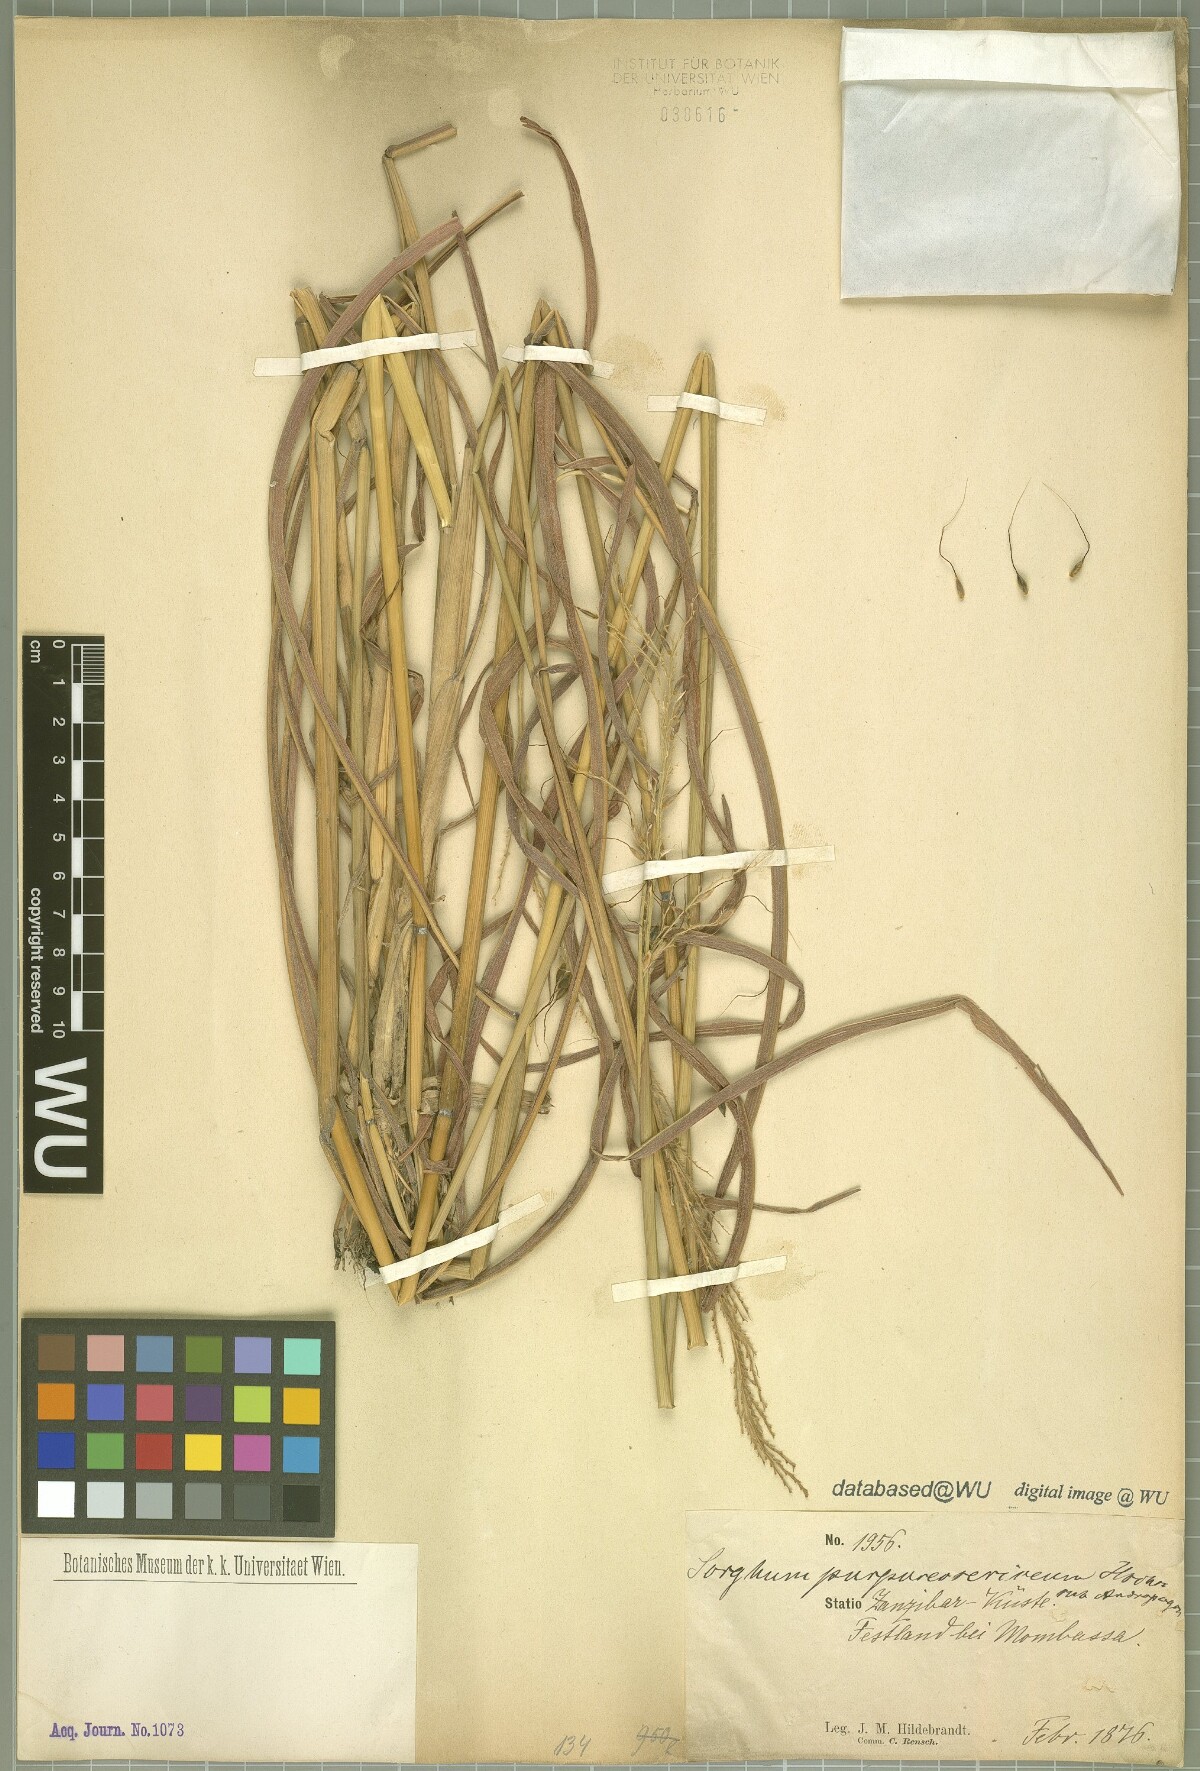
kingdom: Plantae
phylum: Tracheophyta
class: Liliopsida
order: Poales
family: Poaceae
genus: Sarga
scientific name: Sarga purpureosericea
